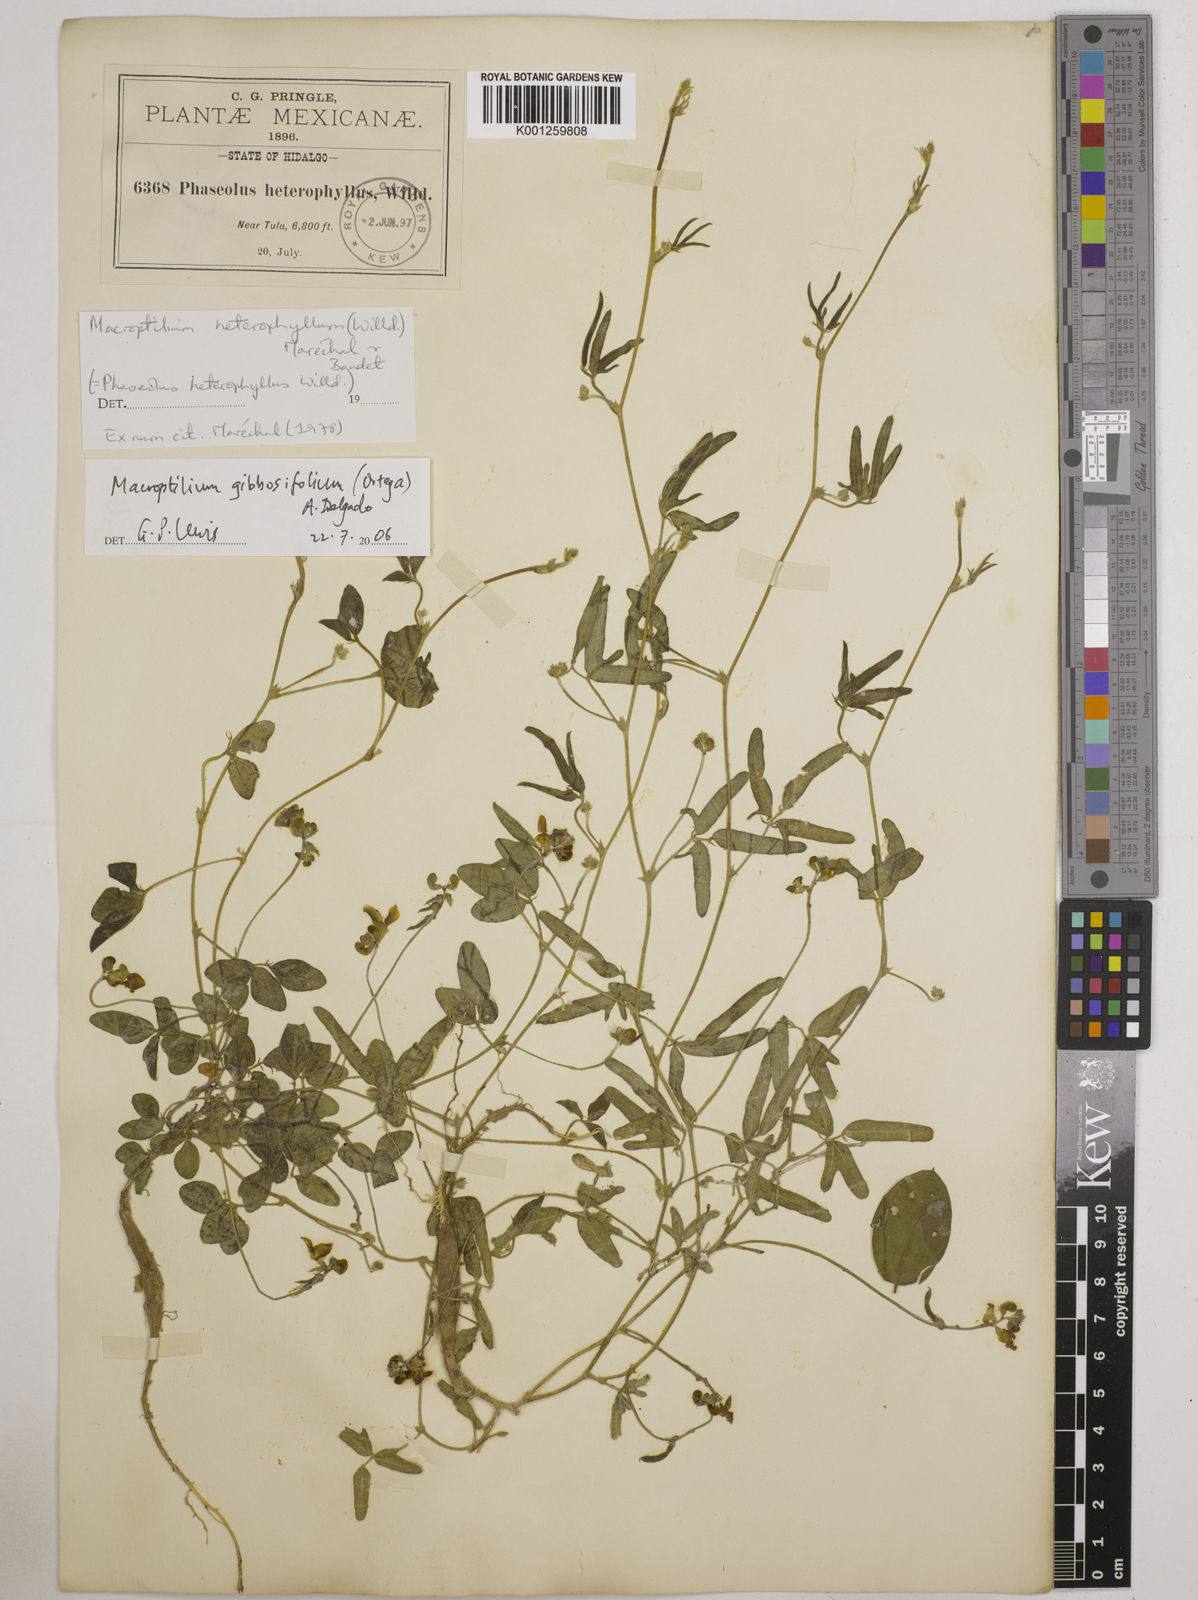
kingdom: Plantae
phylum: Tracheophyta
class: Magnoliopsida
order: Fabales
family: Fabaceae
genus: Macroptilium
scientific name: Macroptilium gibbosifolium
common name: Variableleaf bushbean
